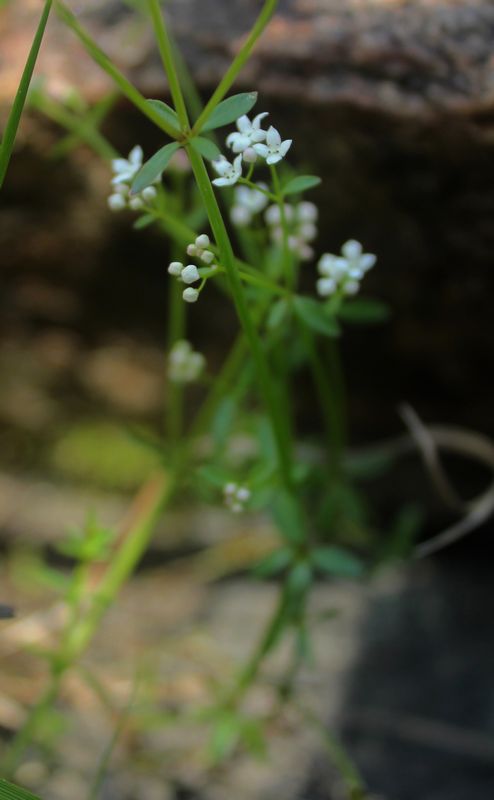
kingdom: Plantae
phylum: Tracheophyta
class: Magnoliopsida
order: Gentianales
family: Rubiaceae
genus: Galium
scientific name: Galium
